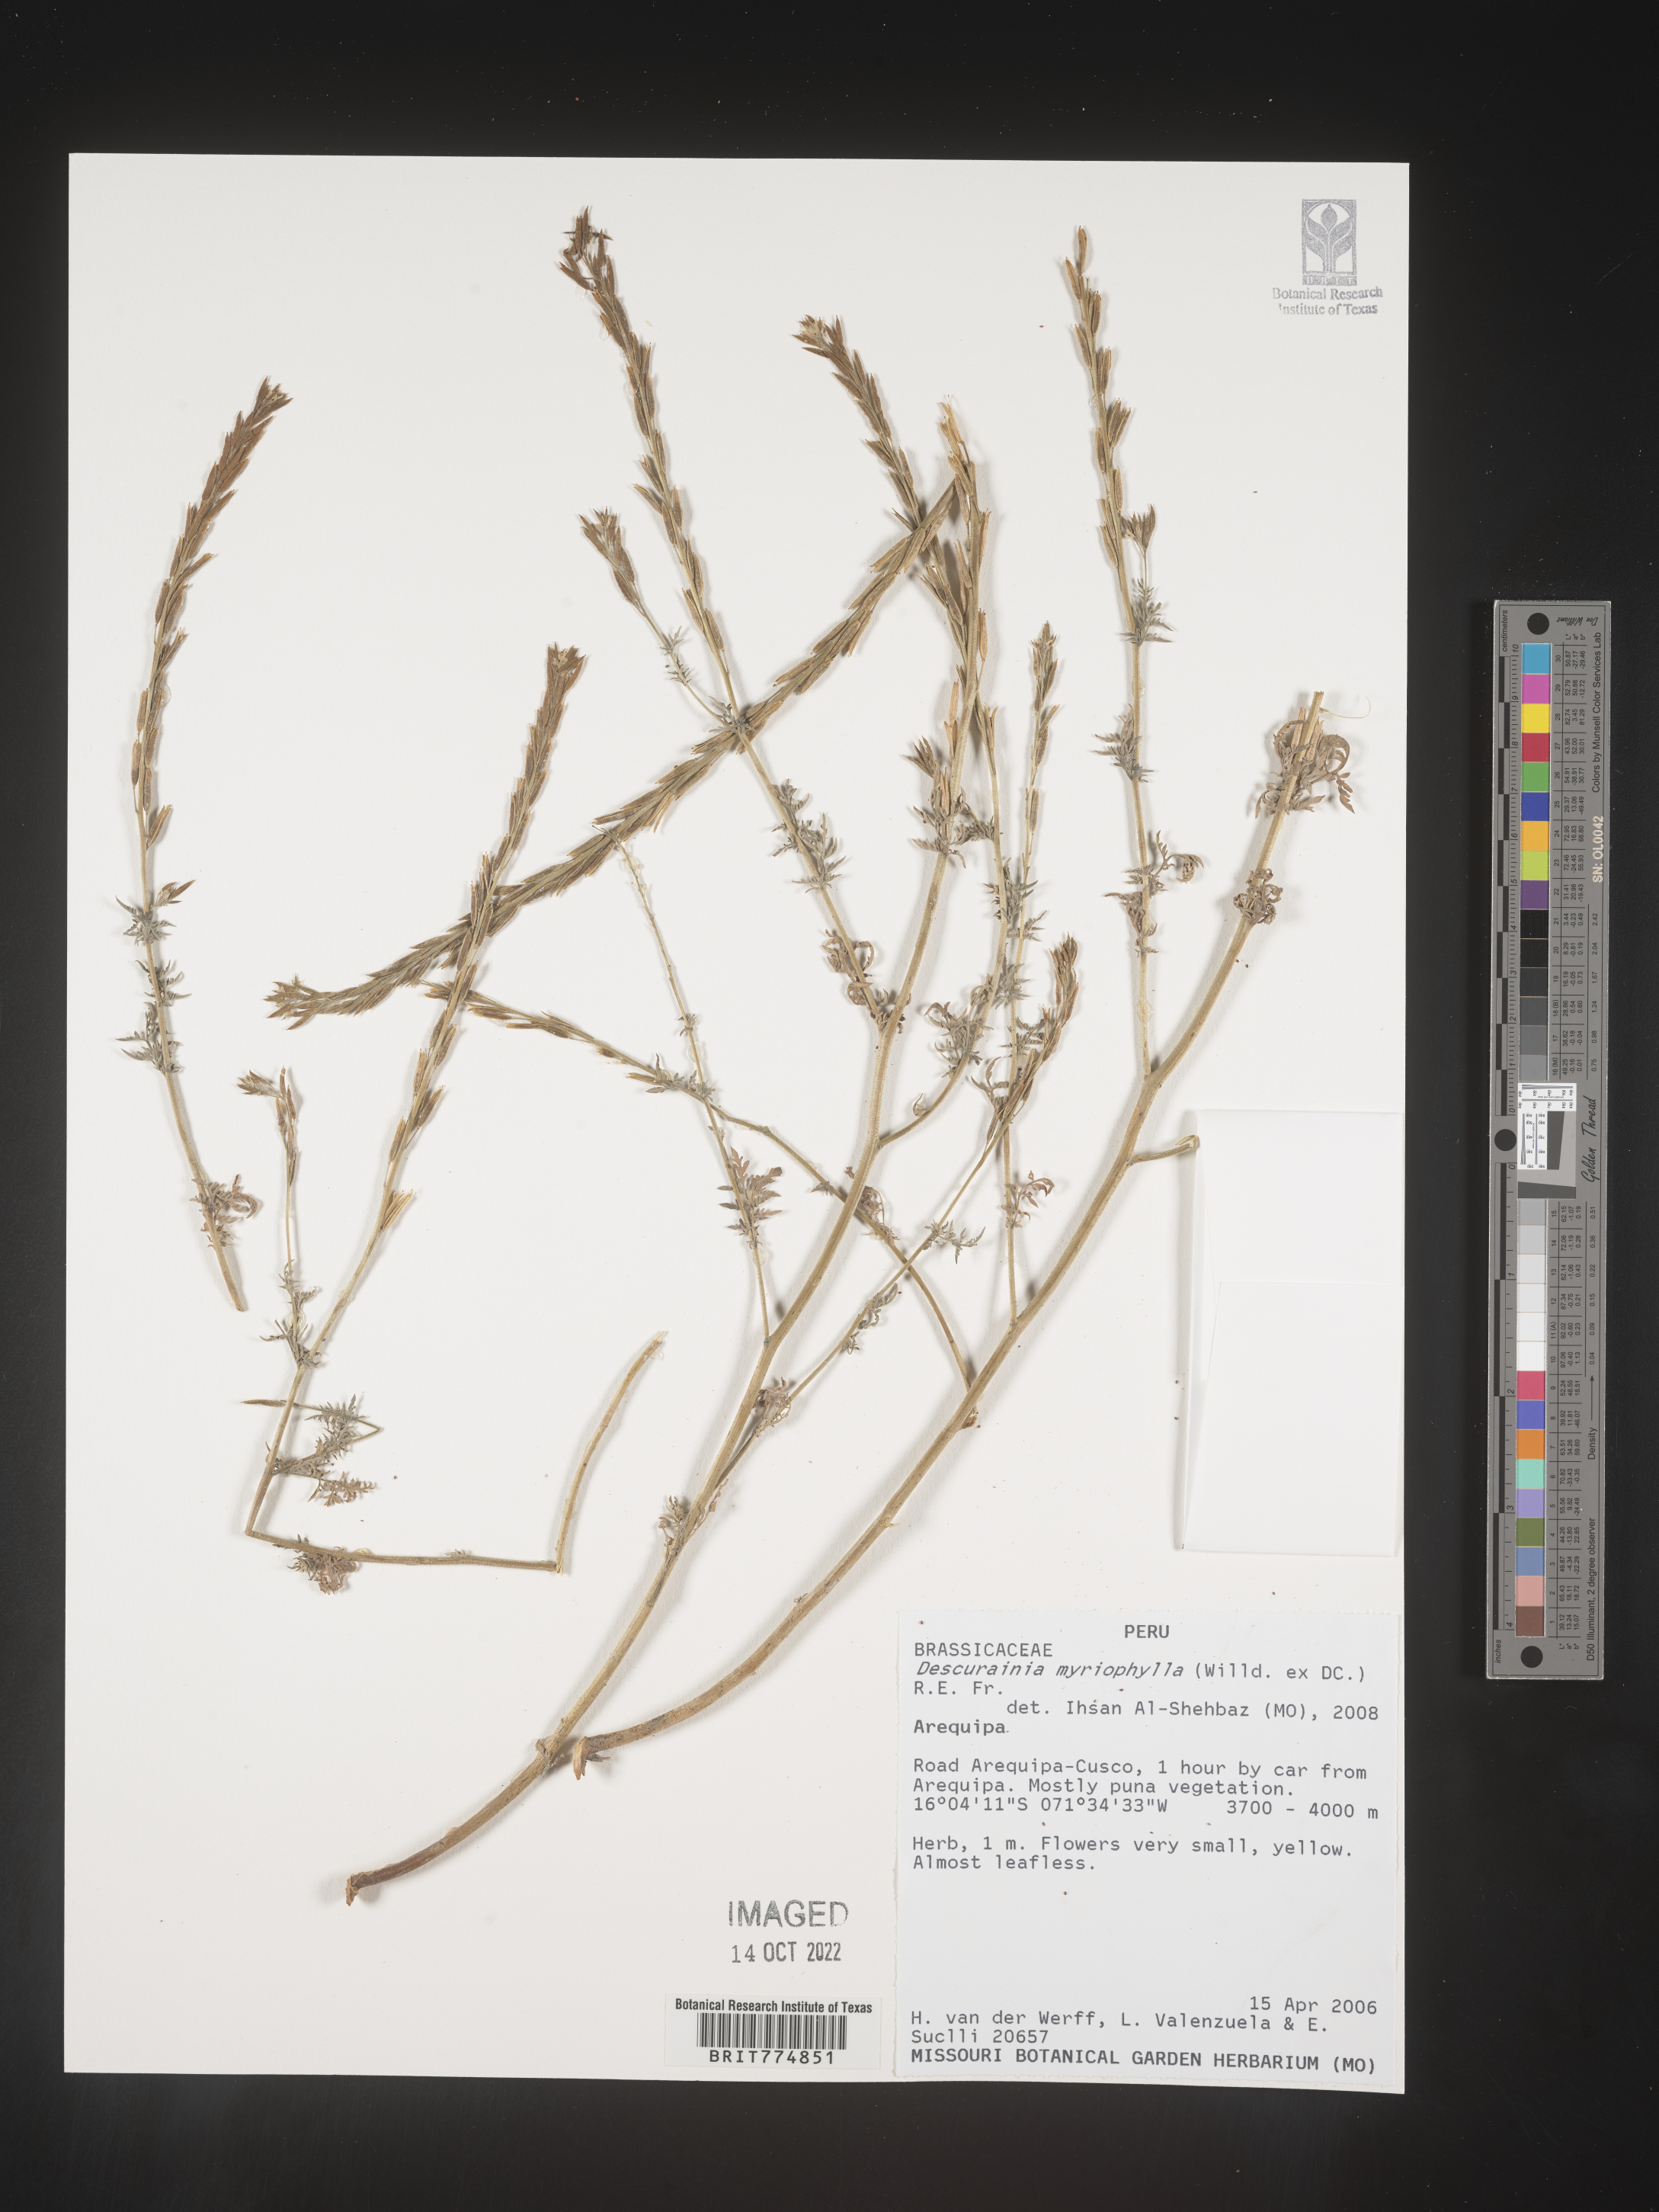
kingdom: Plantae
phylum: Tracheophyta
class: Magnoliopsida
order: Brassicales
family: Brassicaceae
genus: Descurainia
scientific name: Descurainia
